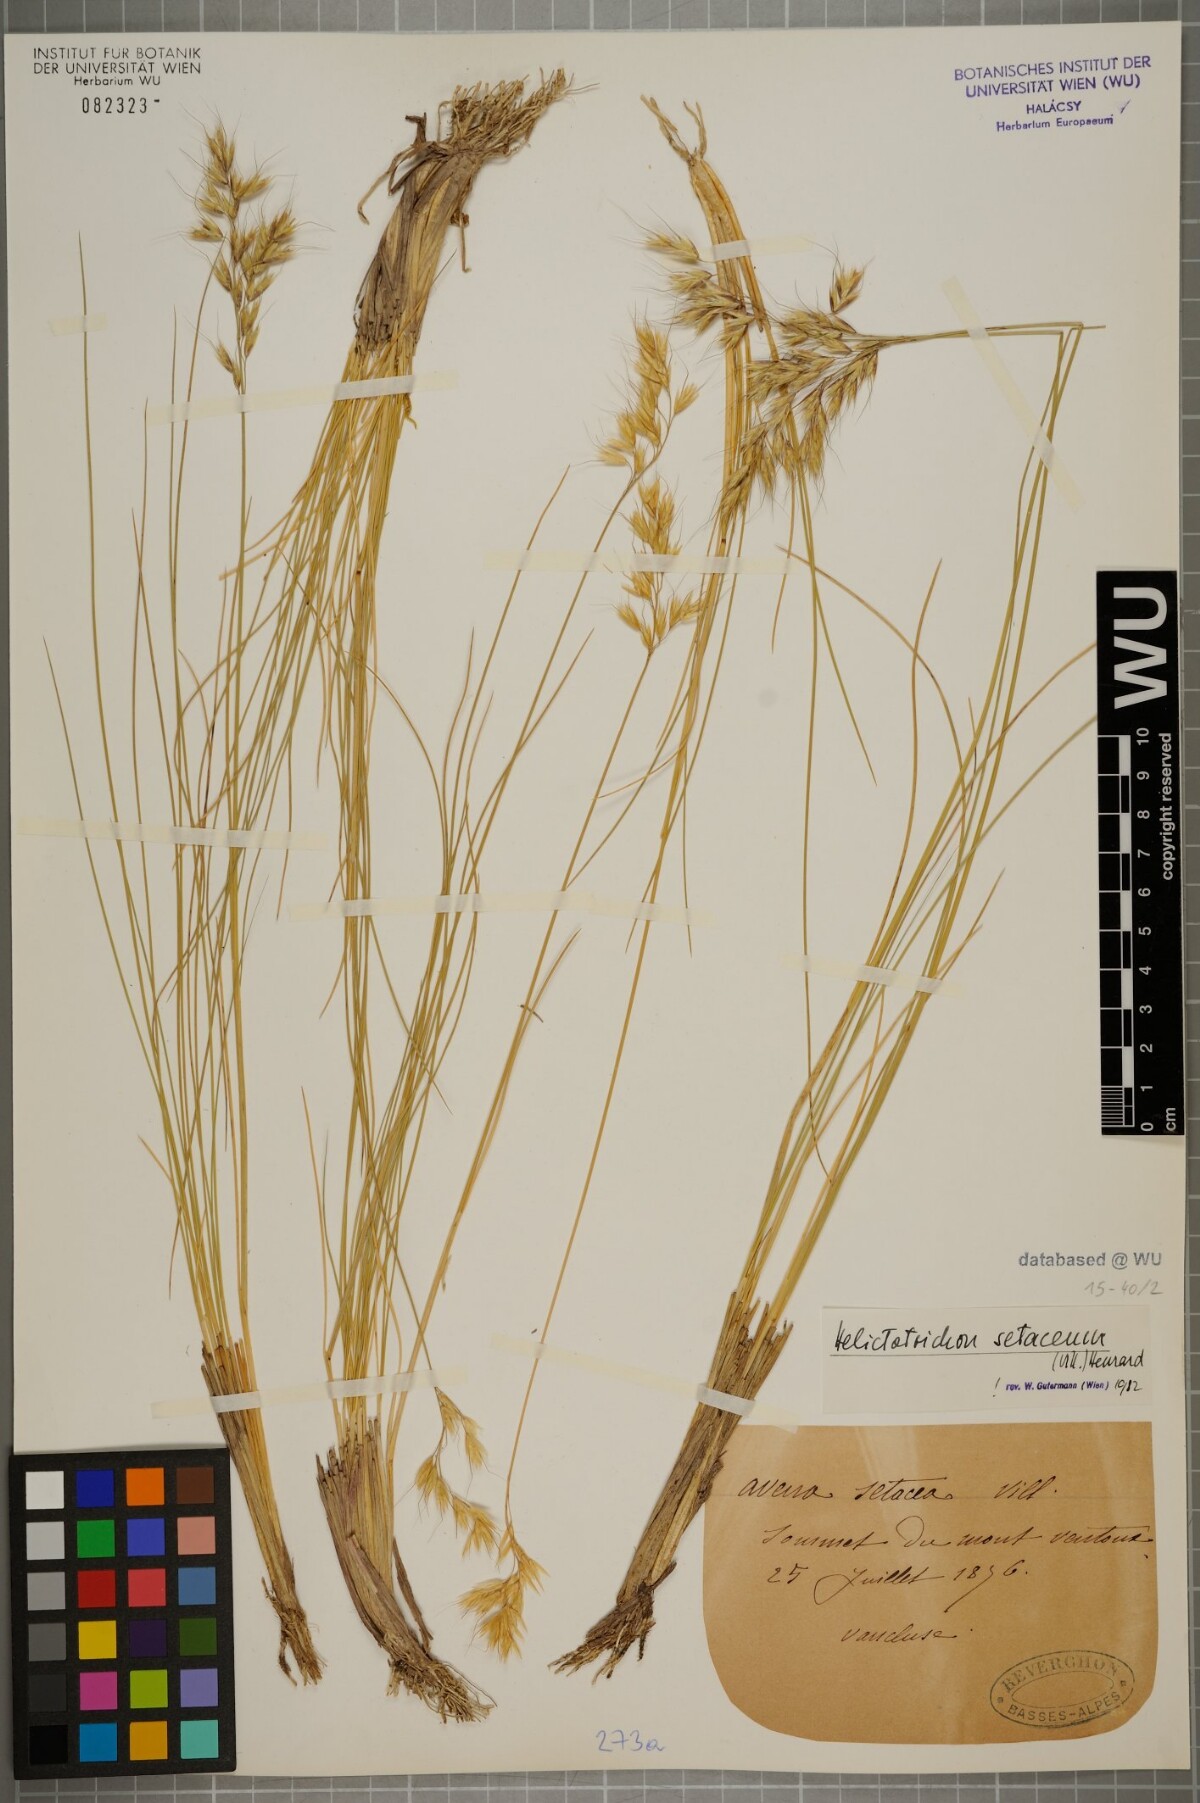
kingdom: Plantae
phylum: Tracheophyta
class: Liliopsida
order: Poales
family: Poaceae
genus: Helictotrichon
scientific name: Helictotrichon setaceum
